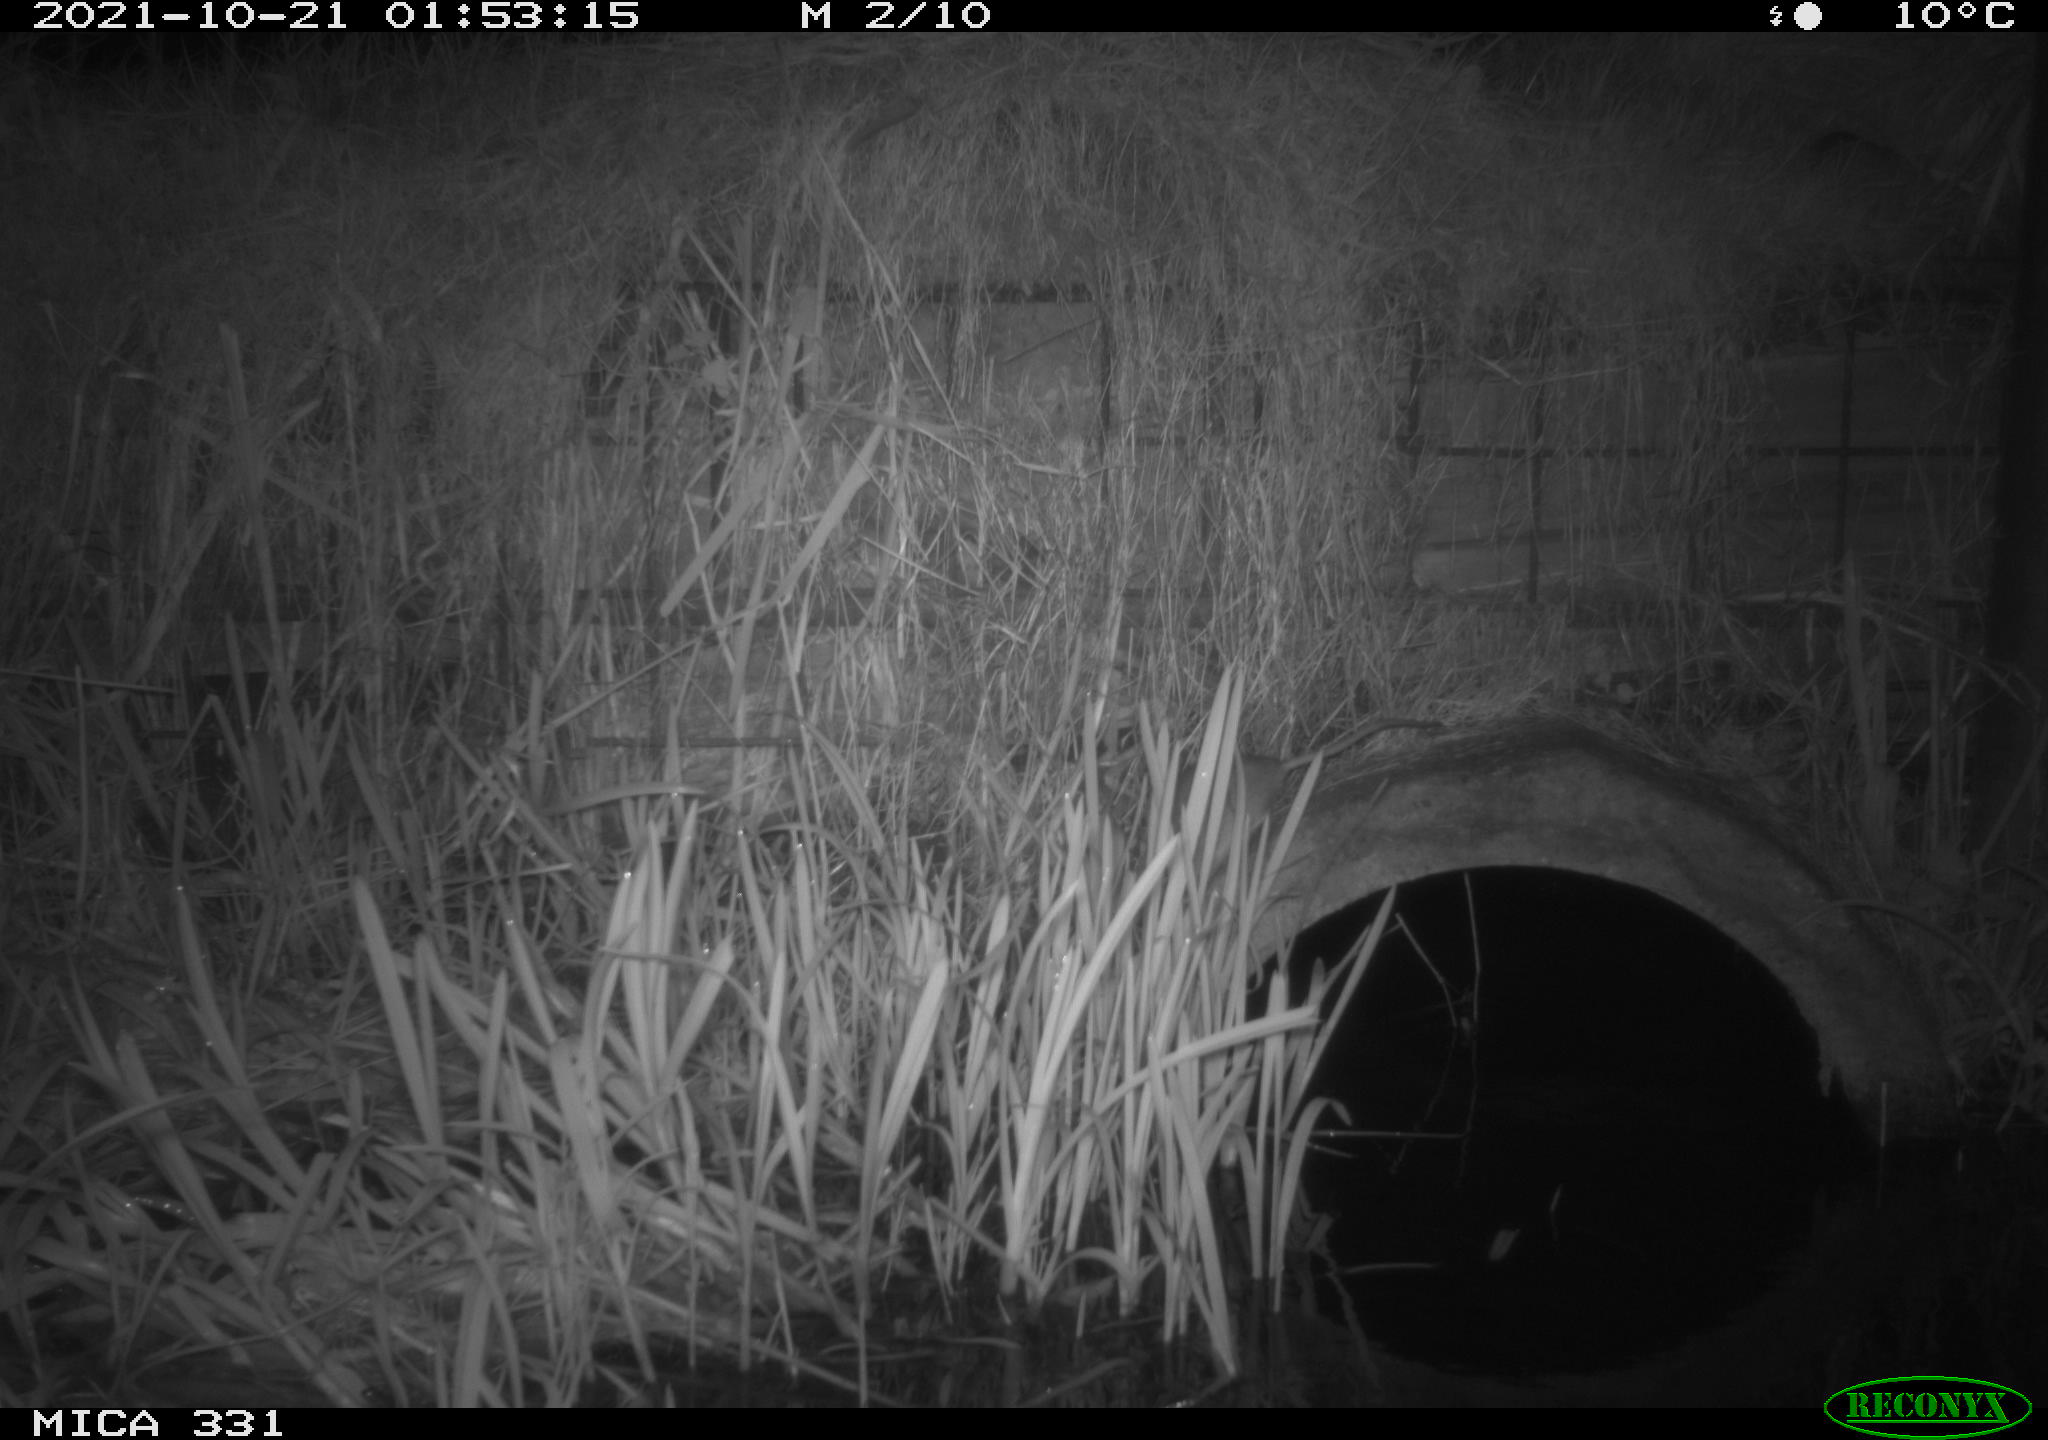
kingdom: Animalia
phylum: Chordata
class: Mammalia
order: Rodentia
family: Muridae
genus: Rattus
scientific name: Rattus norvegicus
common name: Brown rat
